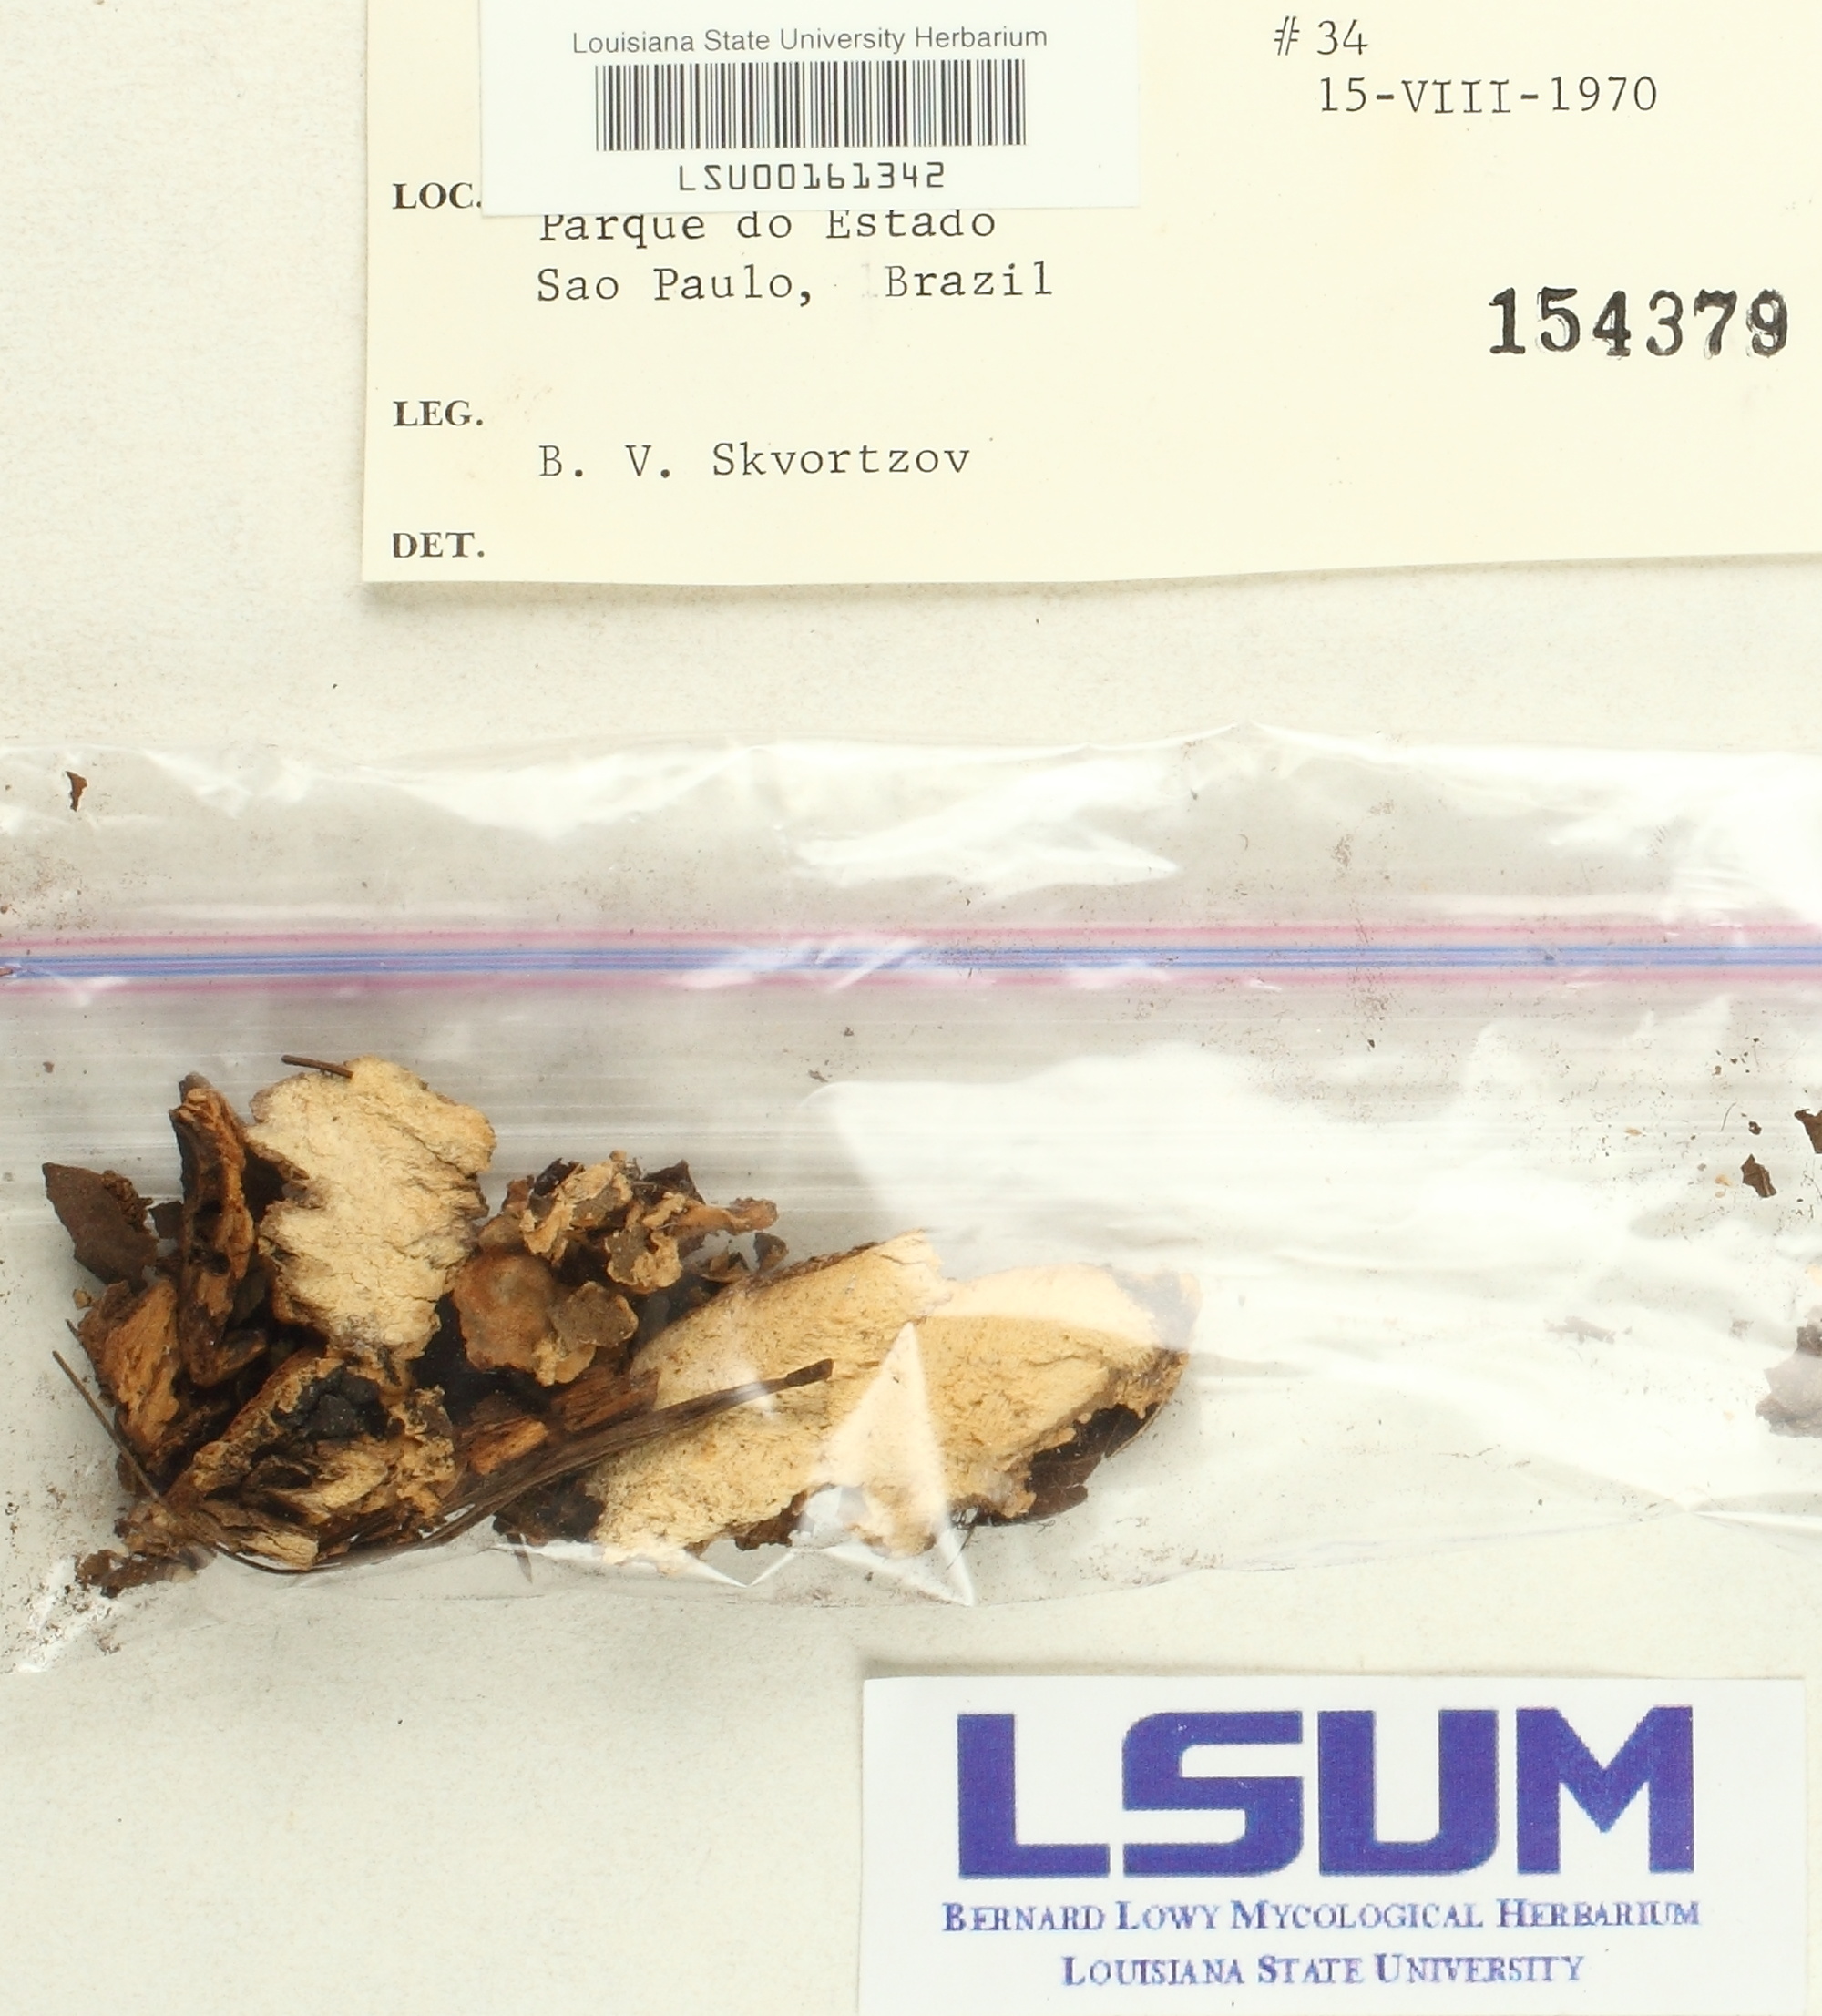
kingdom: Fungi
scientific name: Fungi
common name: Fungi
